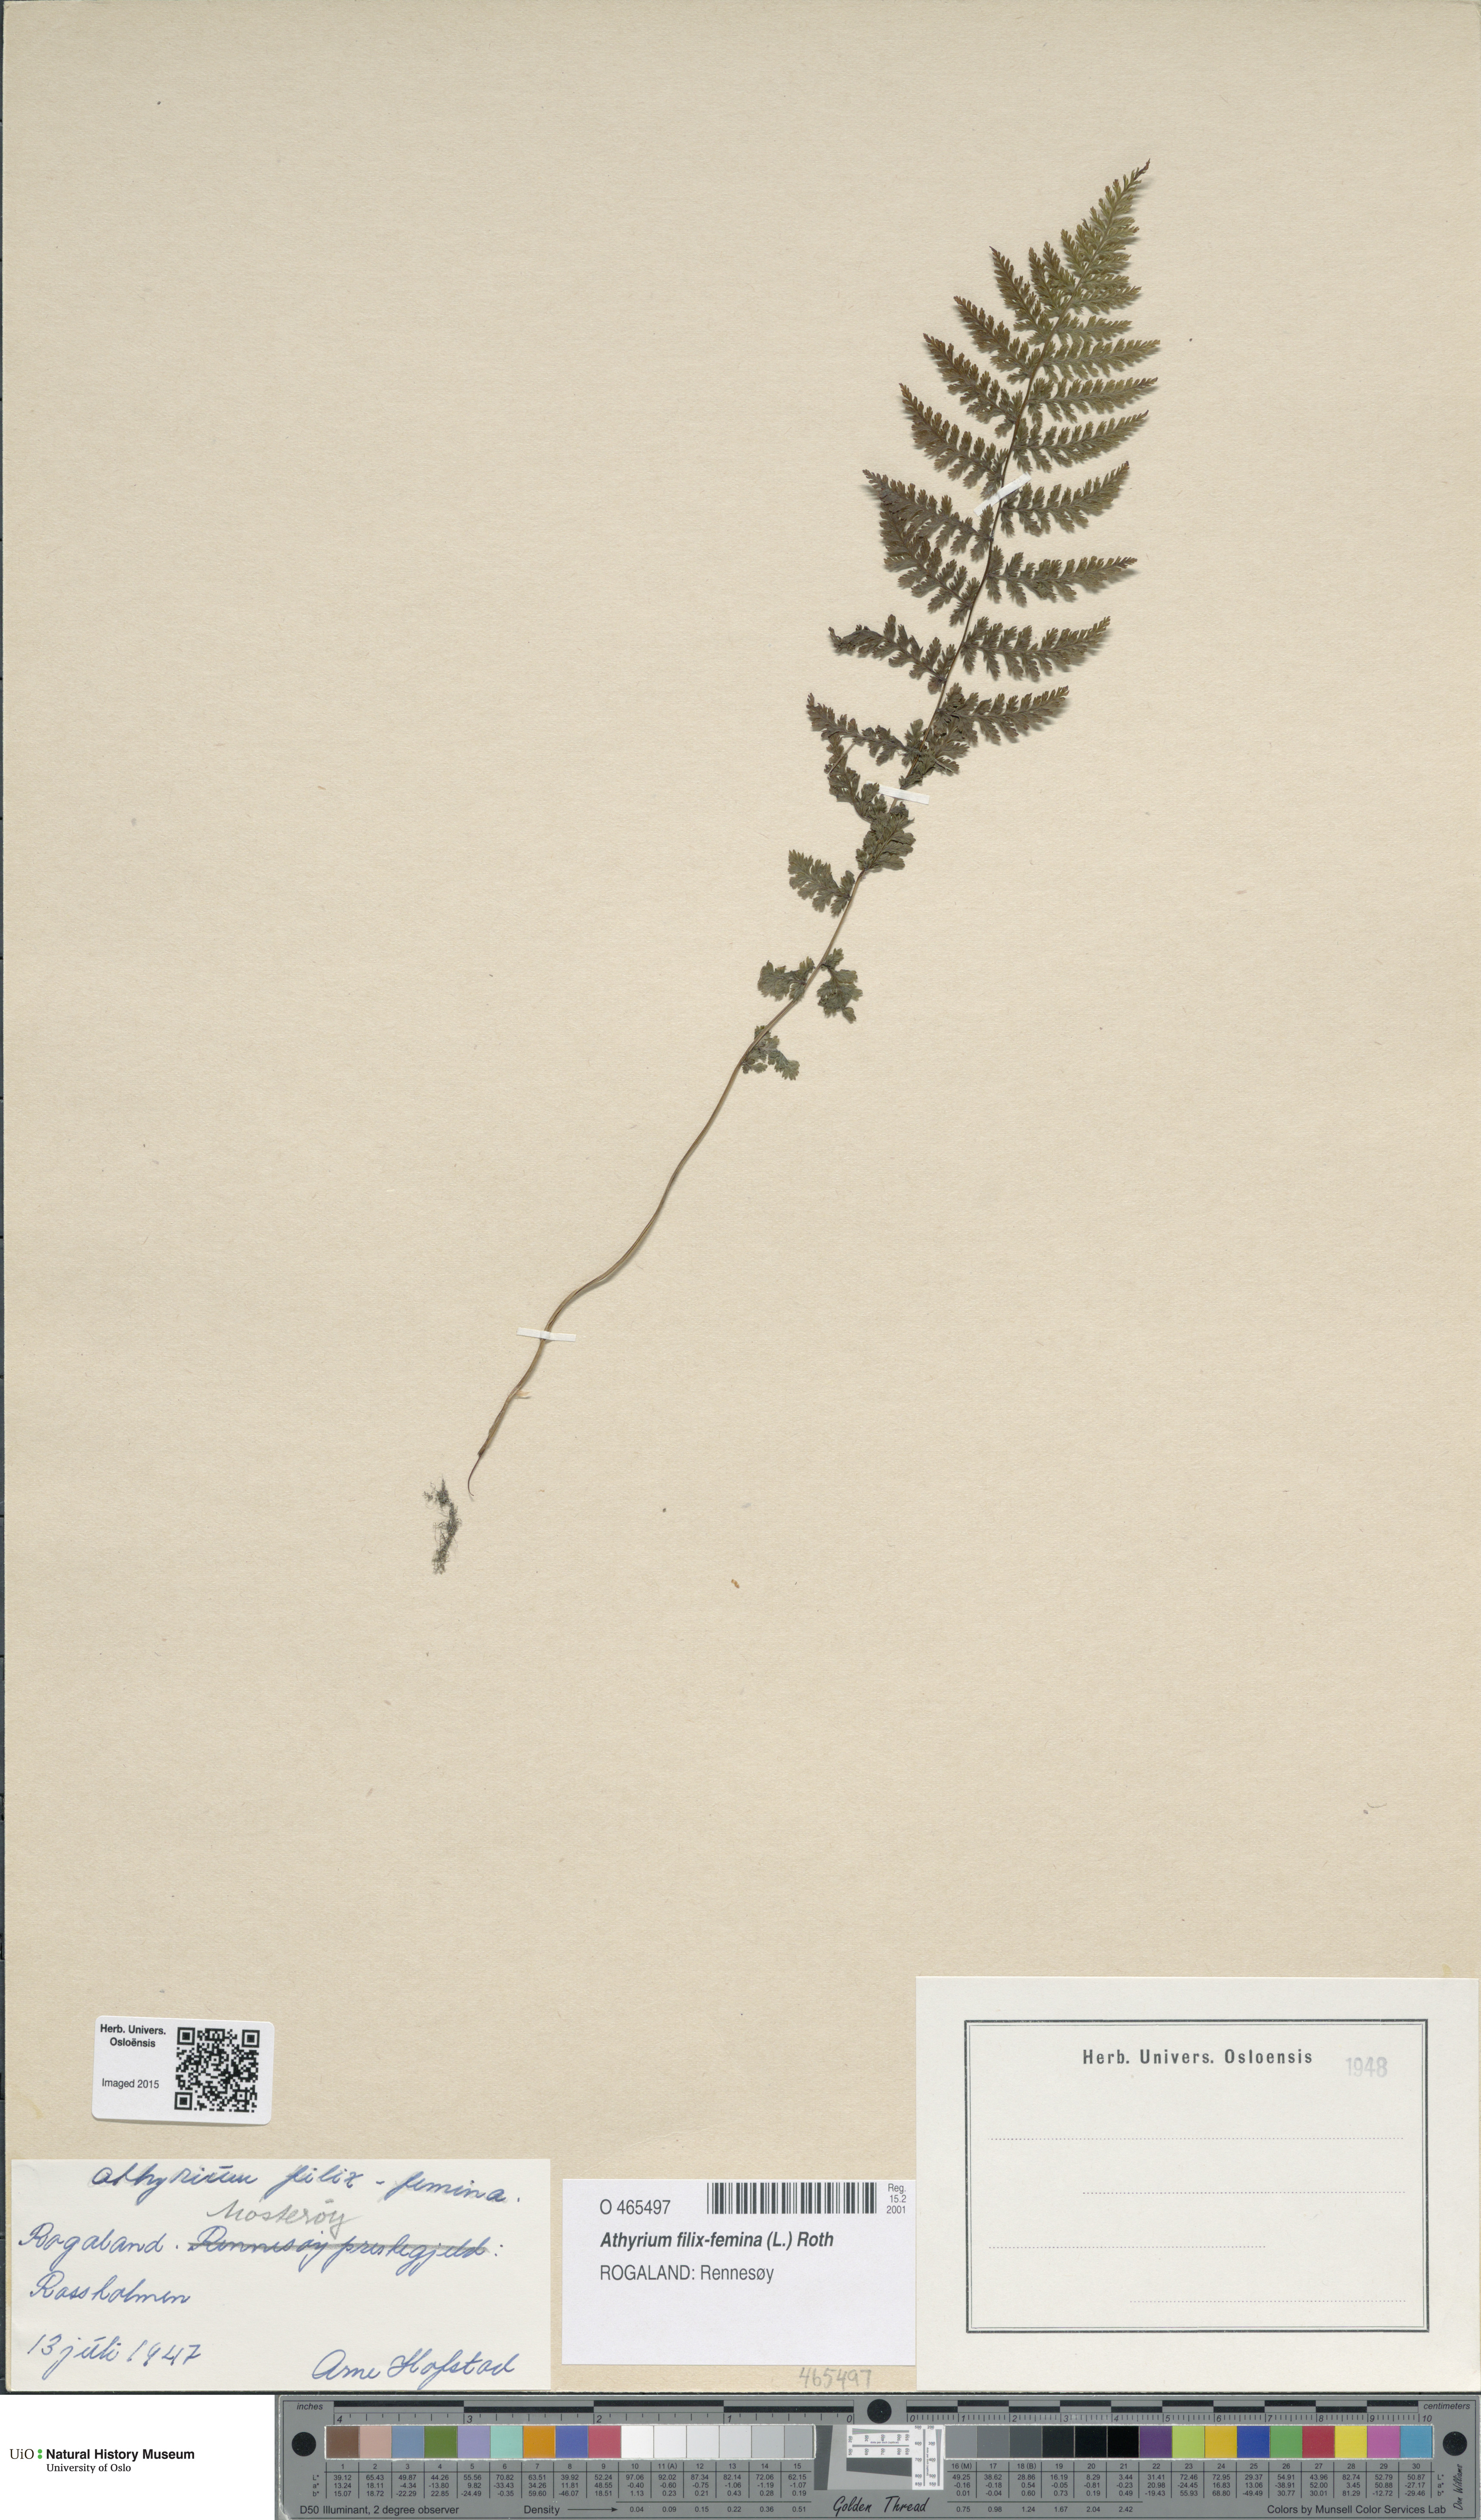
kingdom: Plantae
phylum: Tracheophyta
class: Polypodiopsida
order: Polypodiales
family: Athyriaceae
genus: Athyrium
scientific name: Athyrium filix-femina
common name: Lady fern
